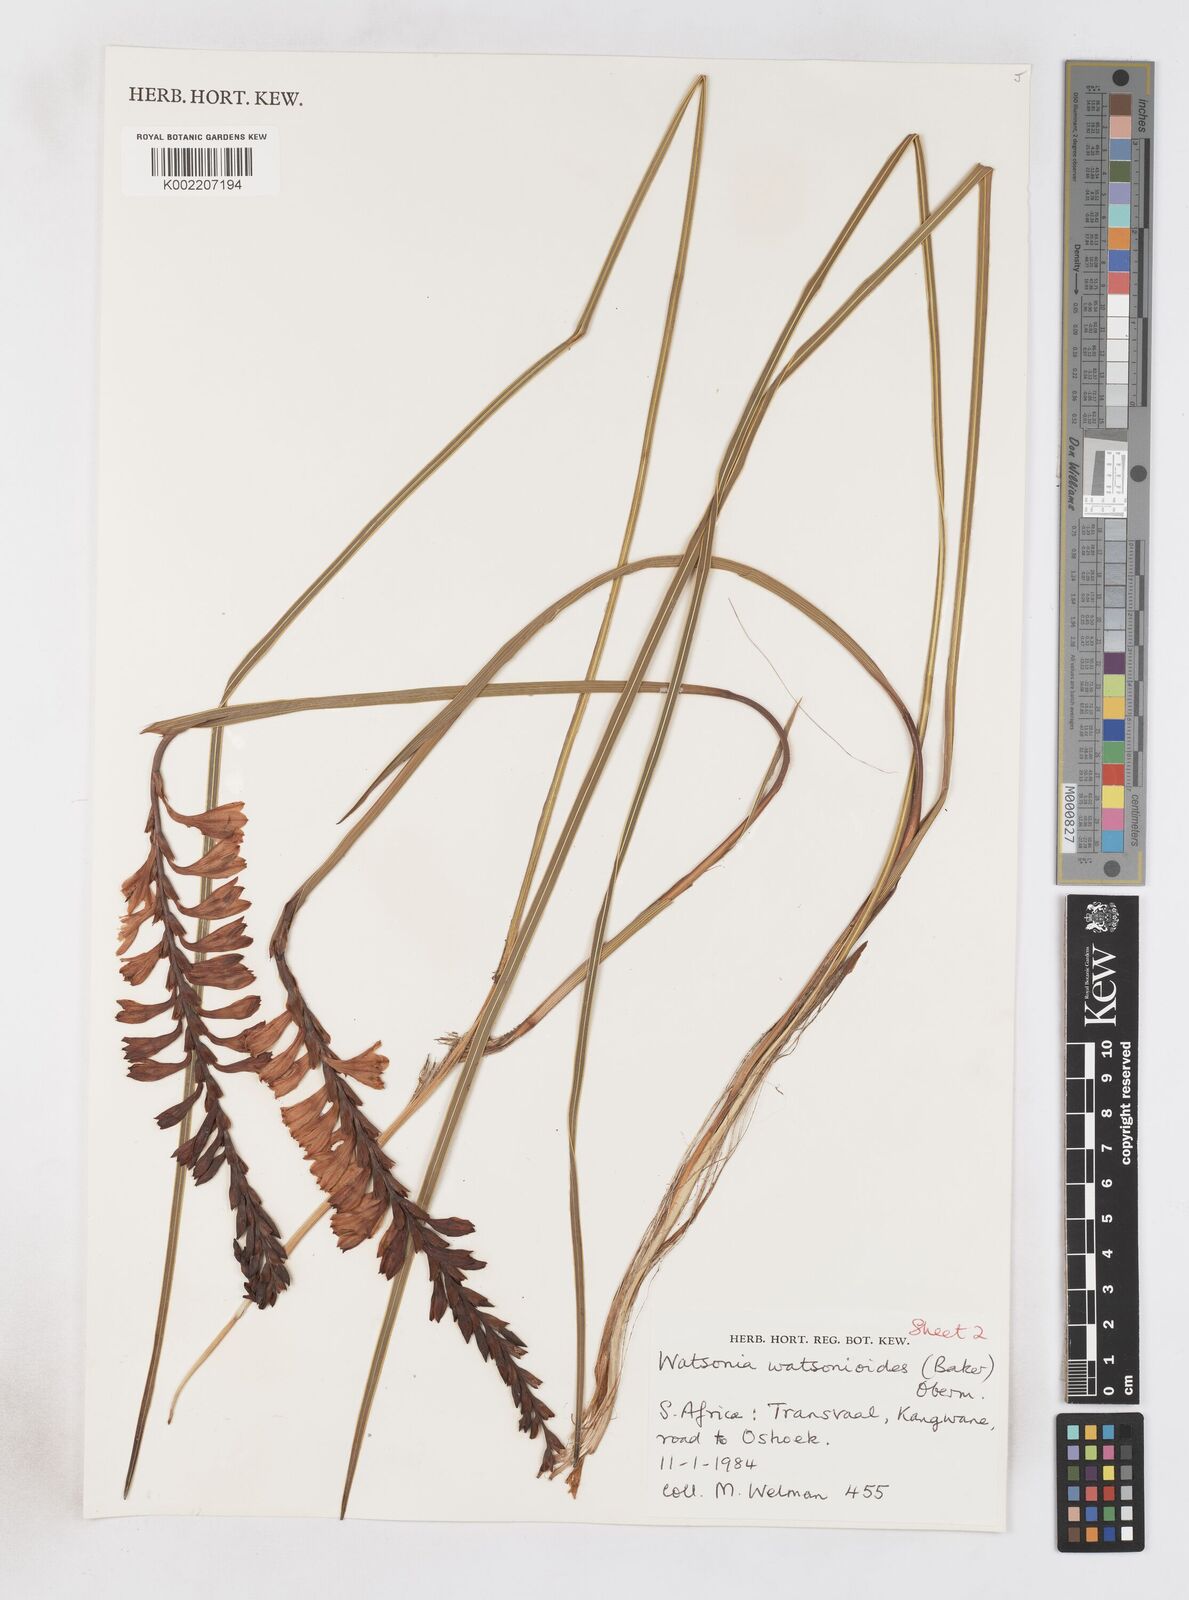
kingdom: Plantae
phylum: Tracheophyta
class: Liliopsida
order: Asparagales
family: Iridaceae
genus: Watsonia
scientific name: Watsonia watsonioides
